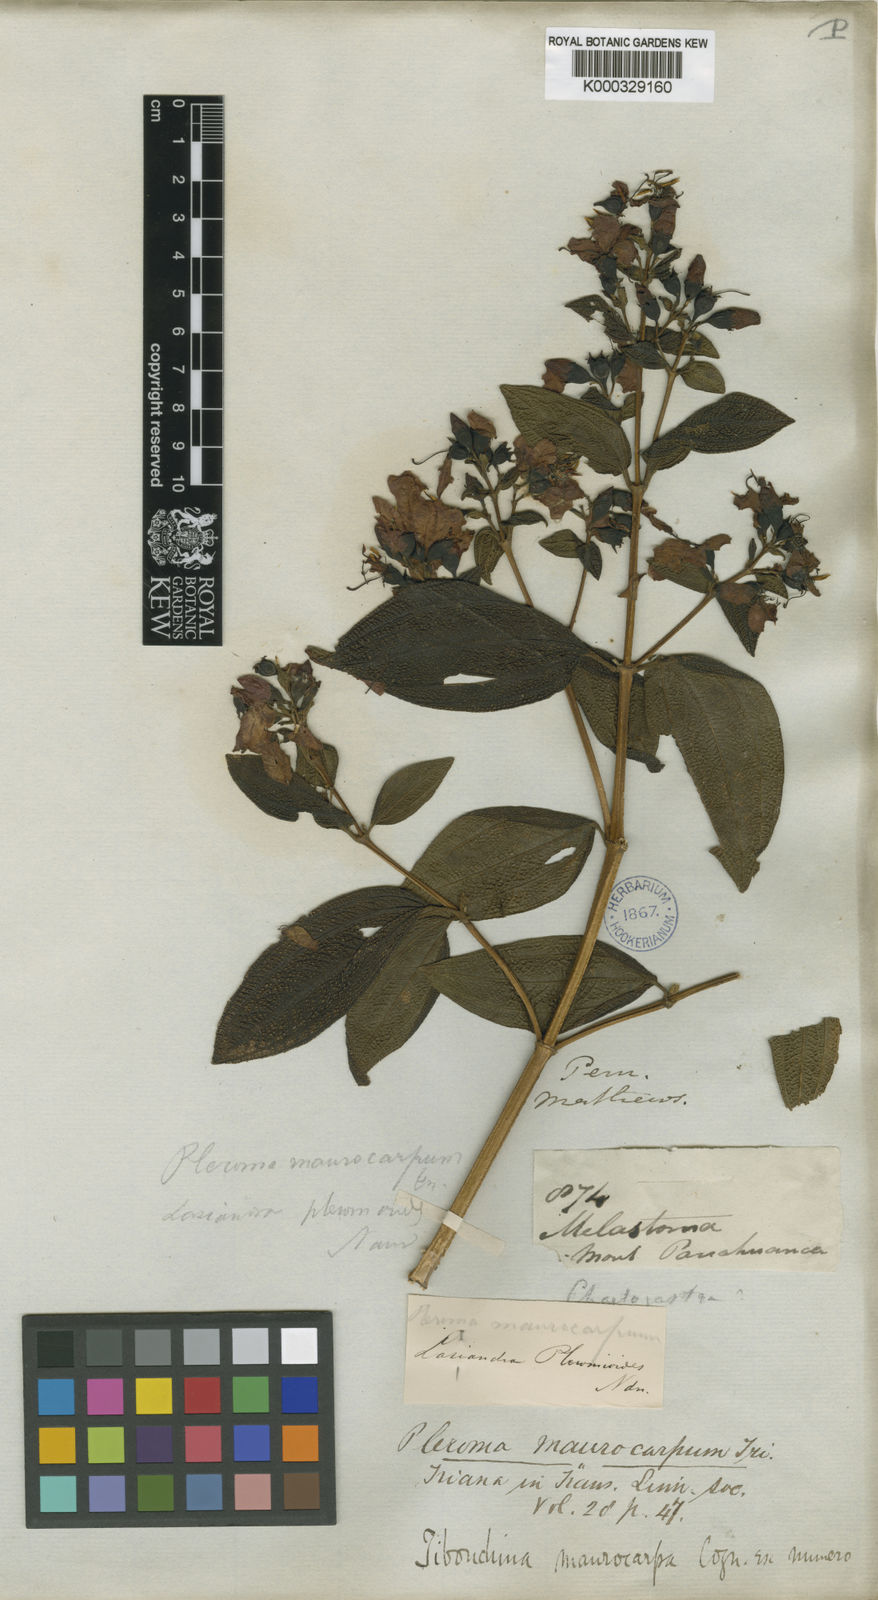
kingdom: Plantae
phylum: Tracheophyta
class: Magnoliopsida
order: Myrtales
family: Melastomataceae
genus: Chaetogastra
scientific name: Chaetogastra pleromoides
